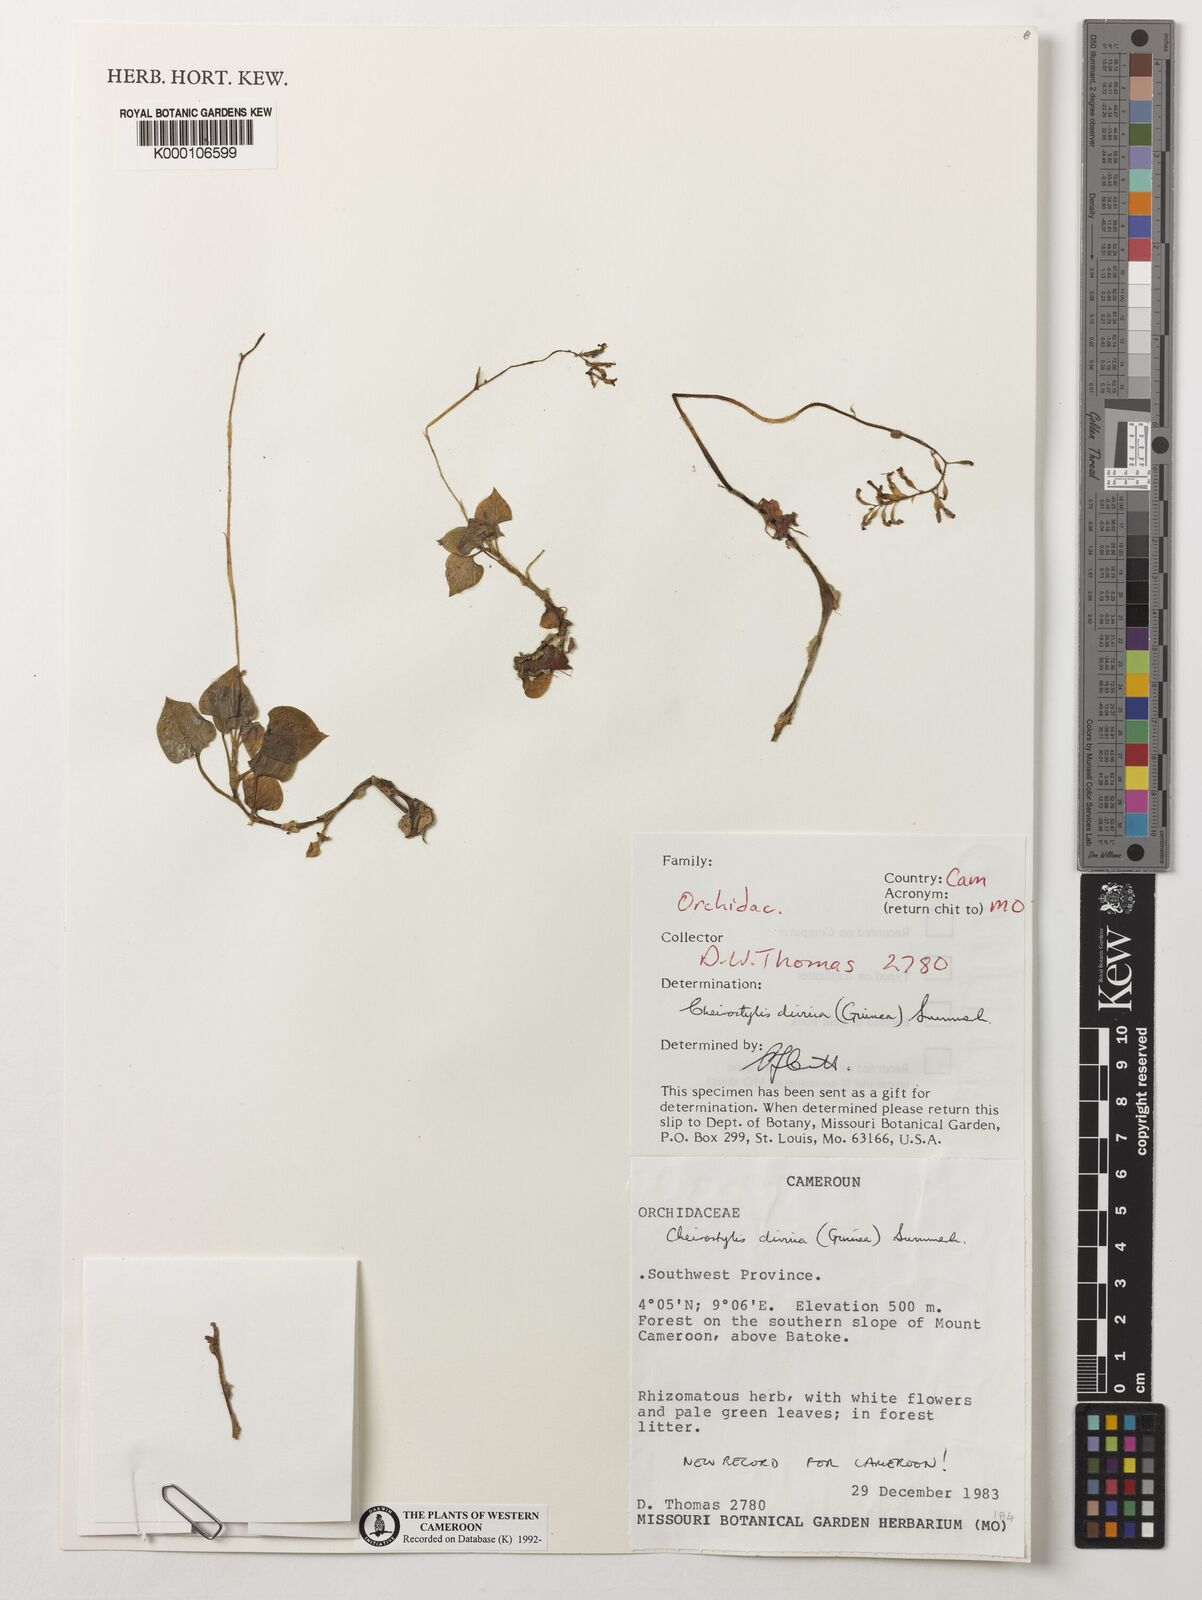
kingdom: Plantae
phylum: Tracheophyta
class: Liliopsida
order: Asparagales
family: Orchidaceae
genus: Cheirostylis
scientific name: Cheirostylis divina
